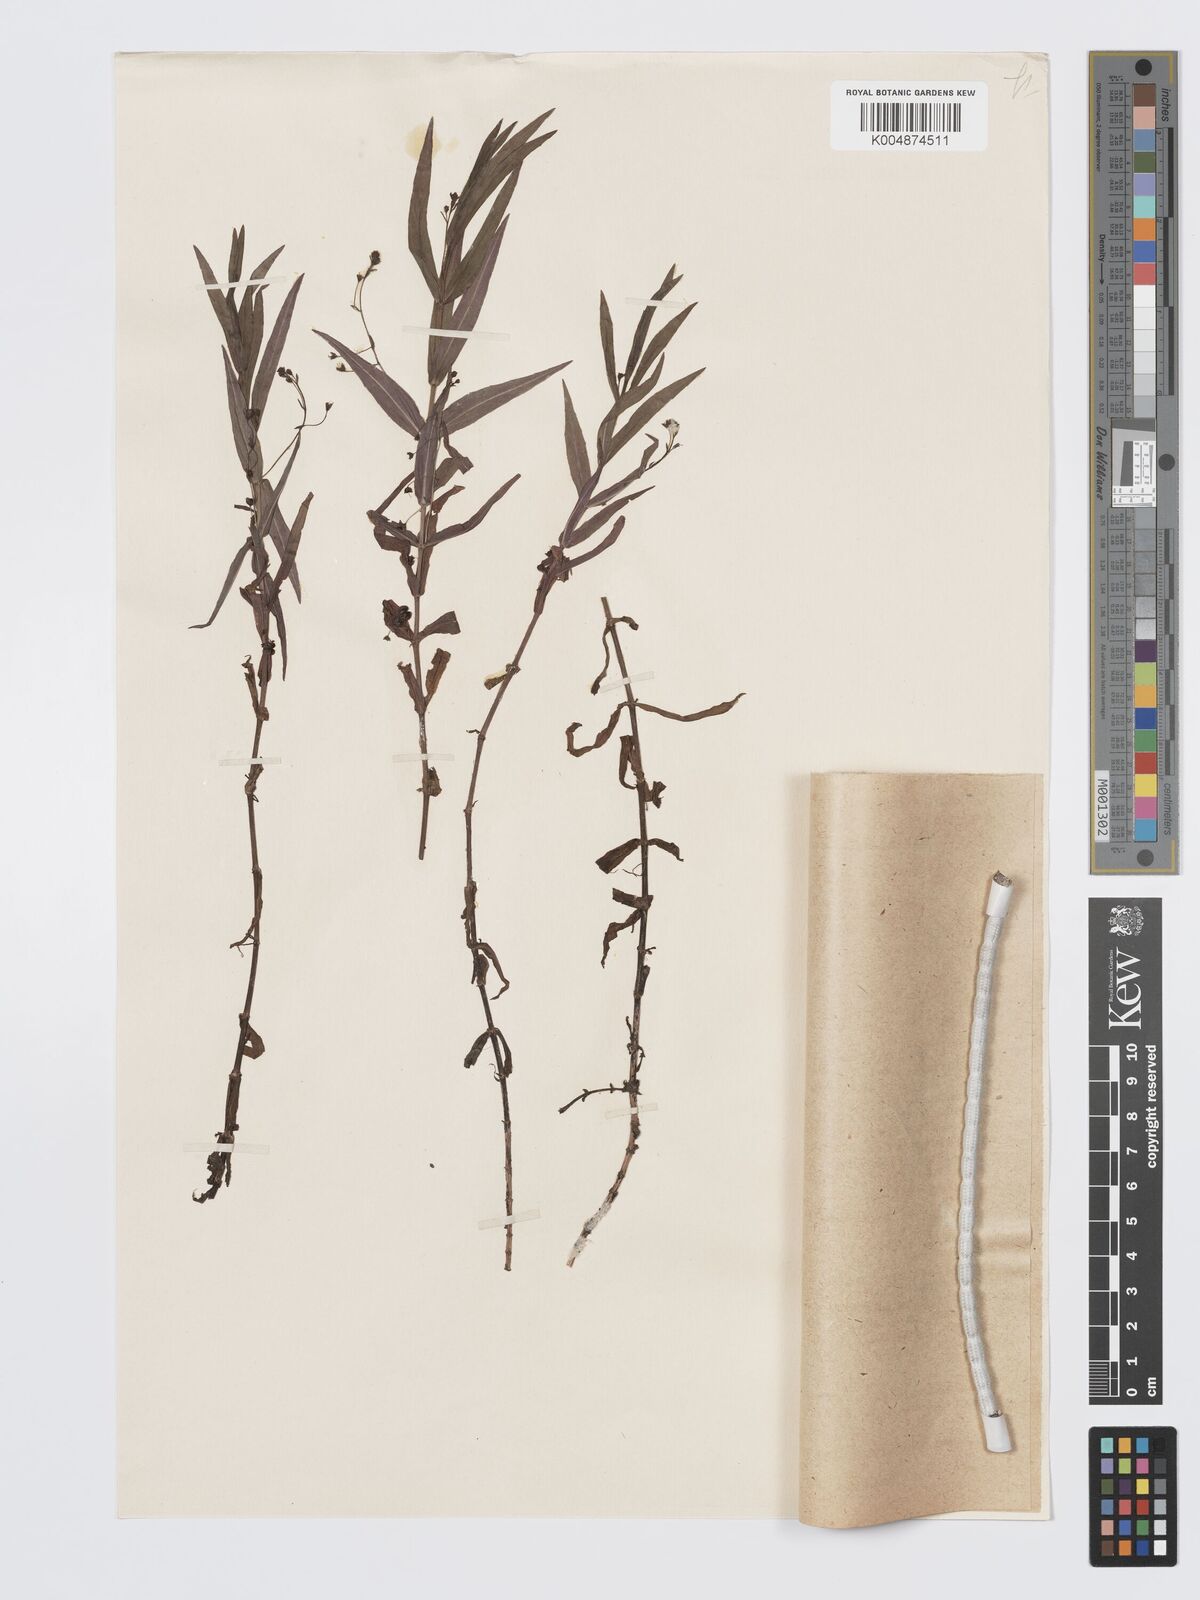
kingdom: Plantae
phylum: Tracheophyta
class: Magnoliopsida
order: Lamiales
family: Plantaginaceae
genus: Veronica
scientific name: Veronica scutellata
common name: Marsh speedwell
